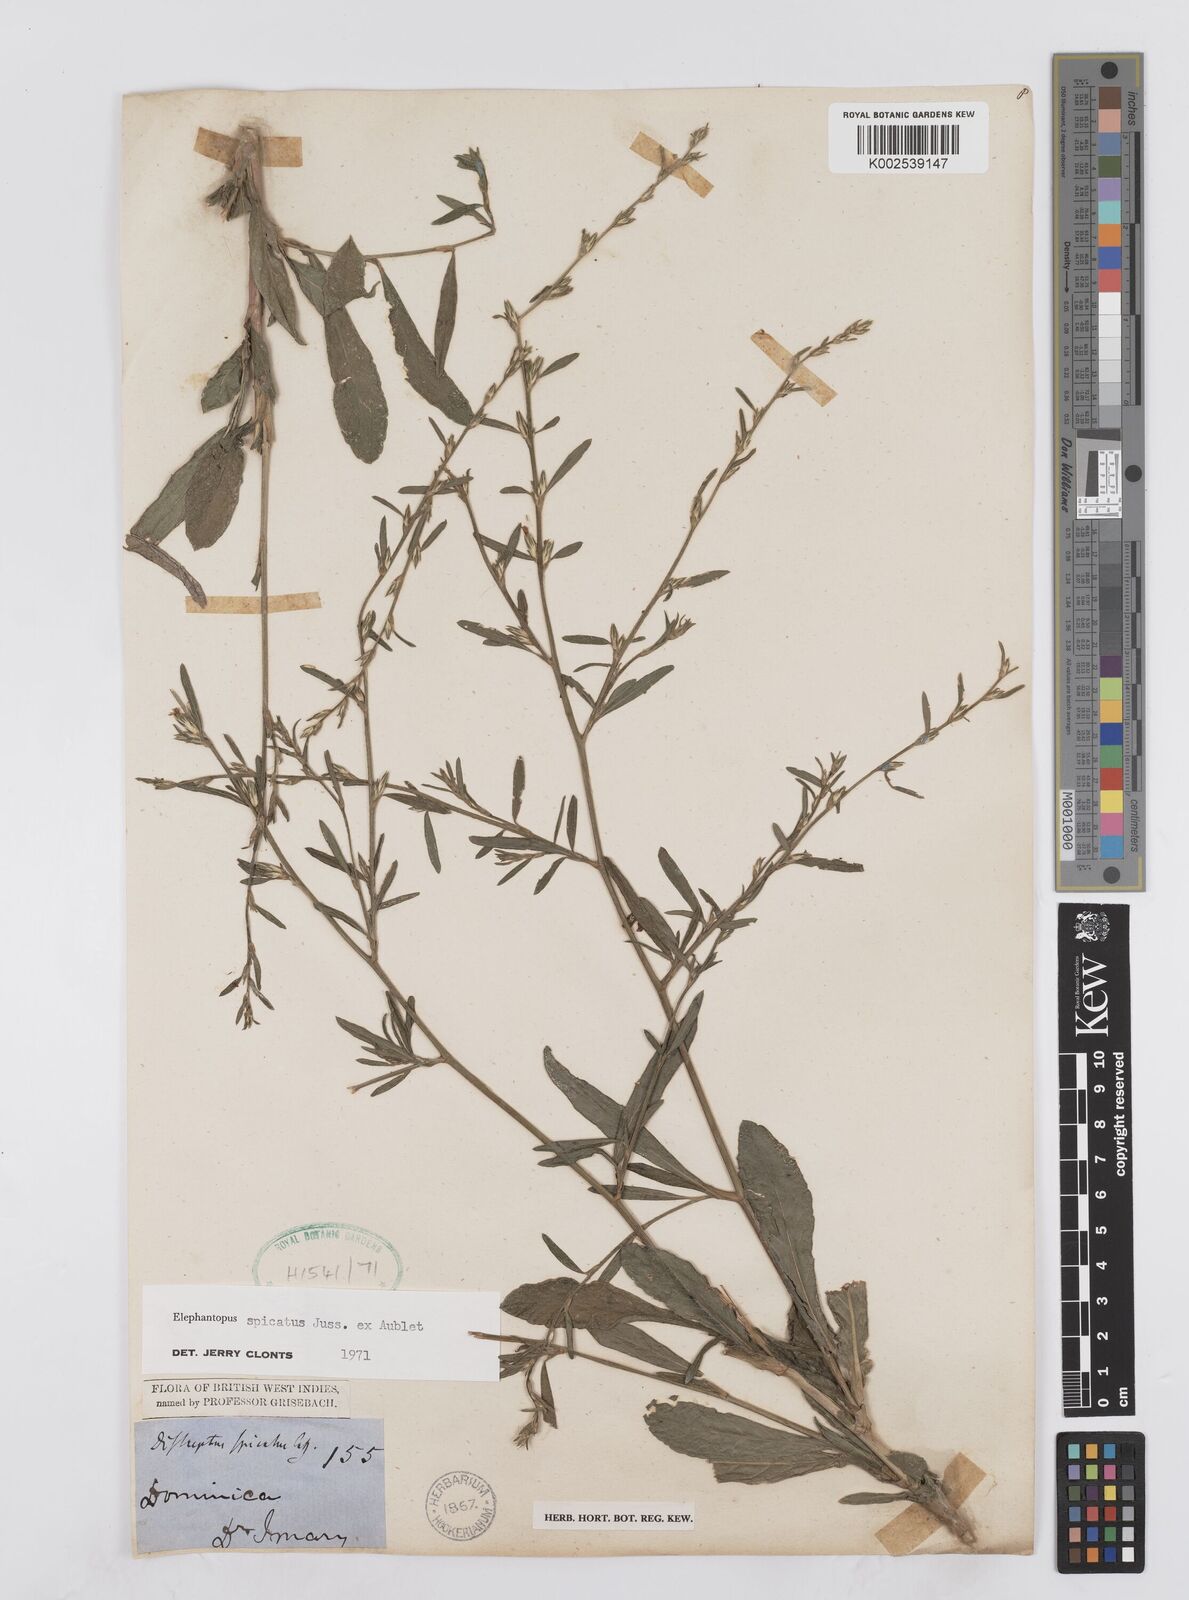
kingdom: Plantae
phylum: Tracheophyta
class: Magnoliopsida
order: Asterales
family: Asteraceae
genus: Pseudelephantopus
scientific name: Pseudelephantopus spicatus
